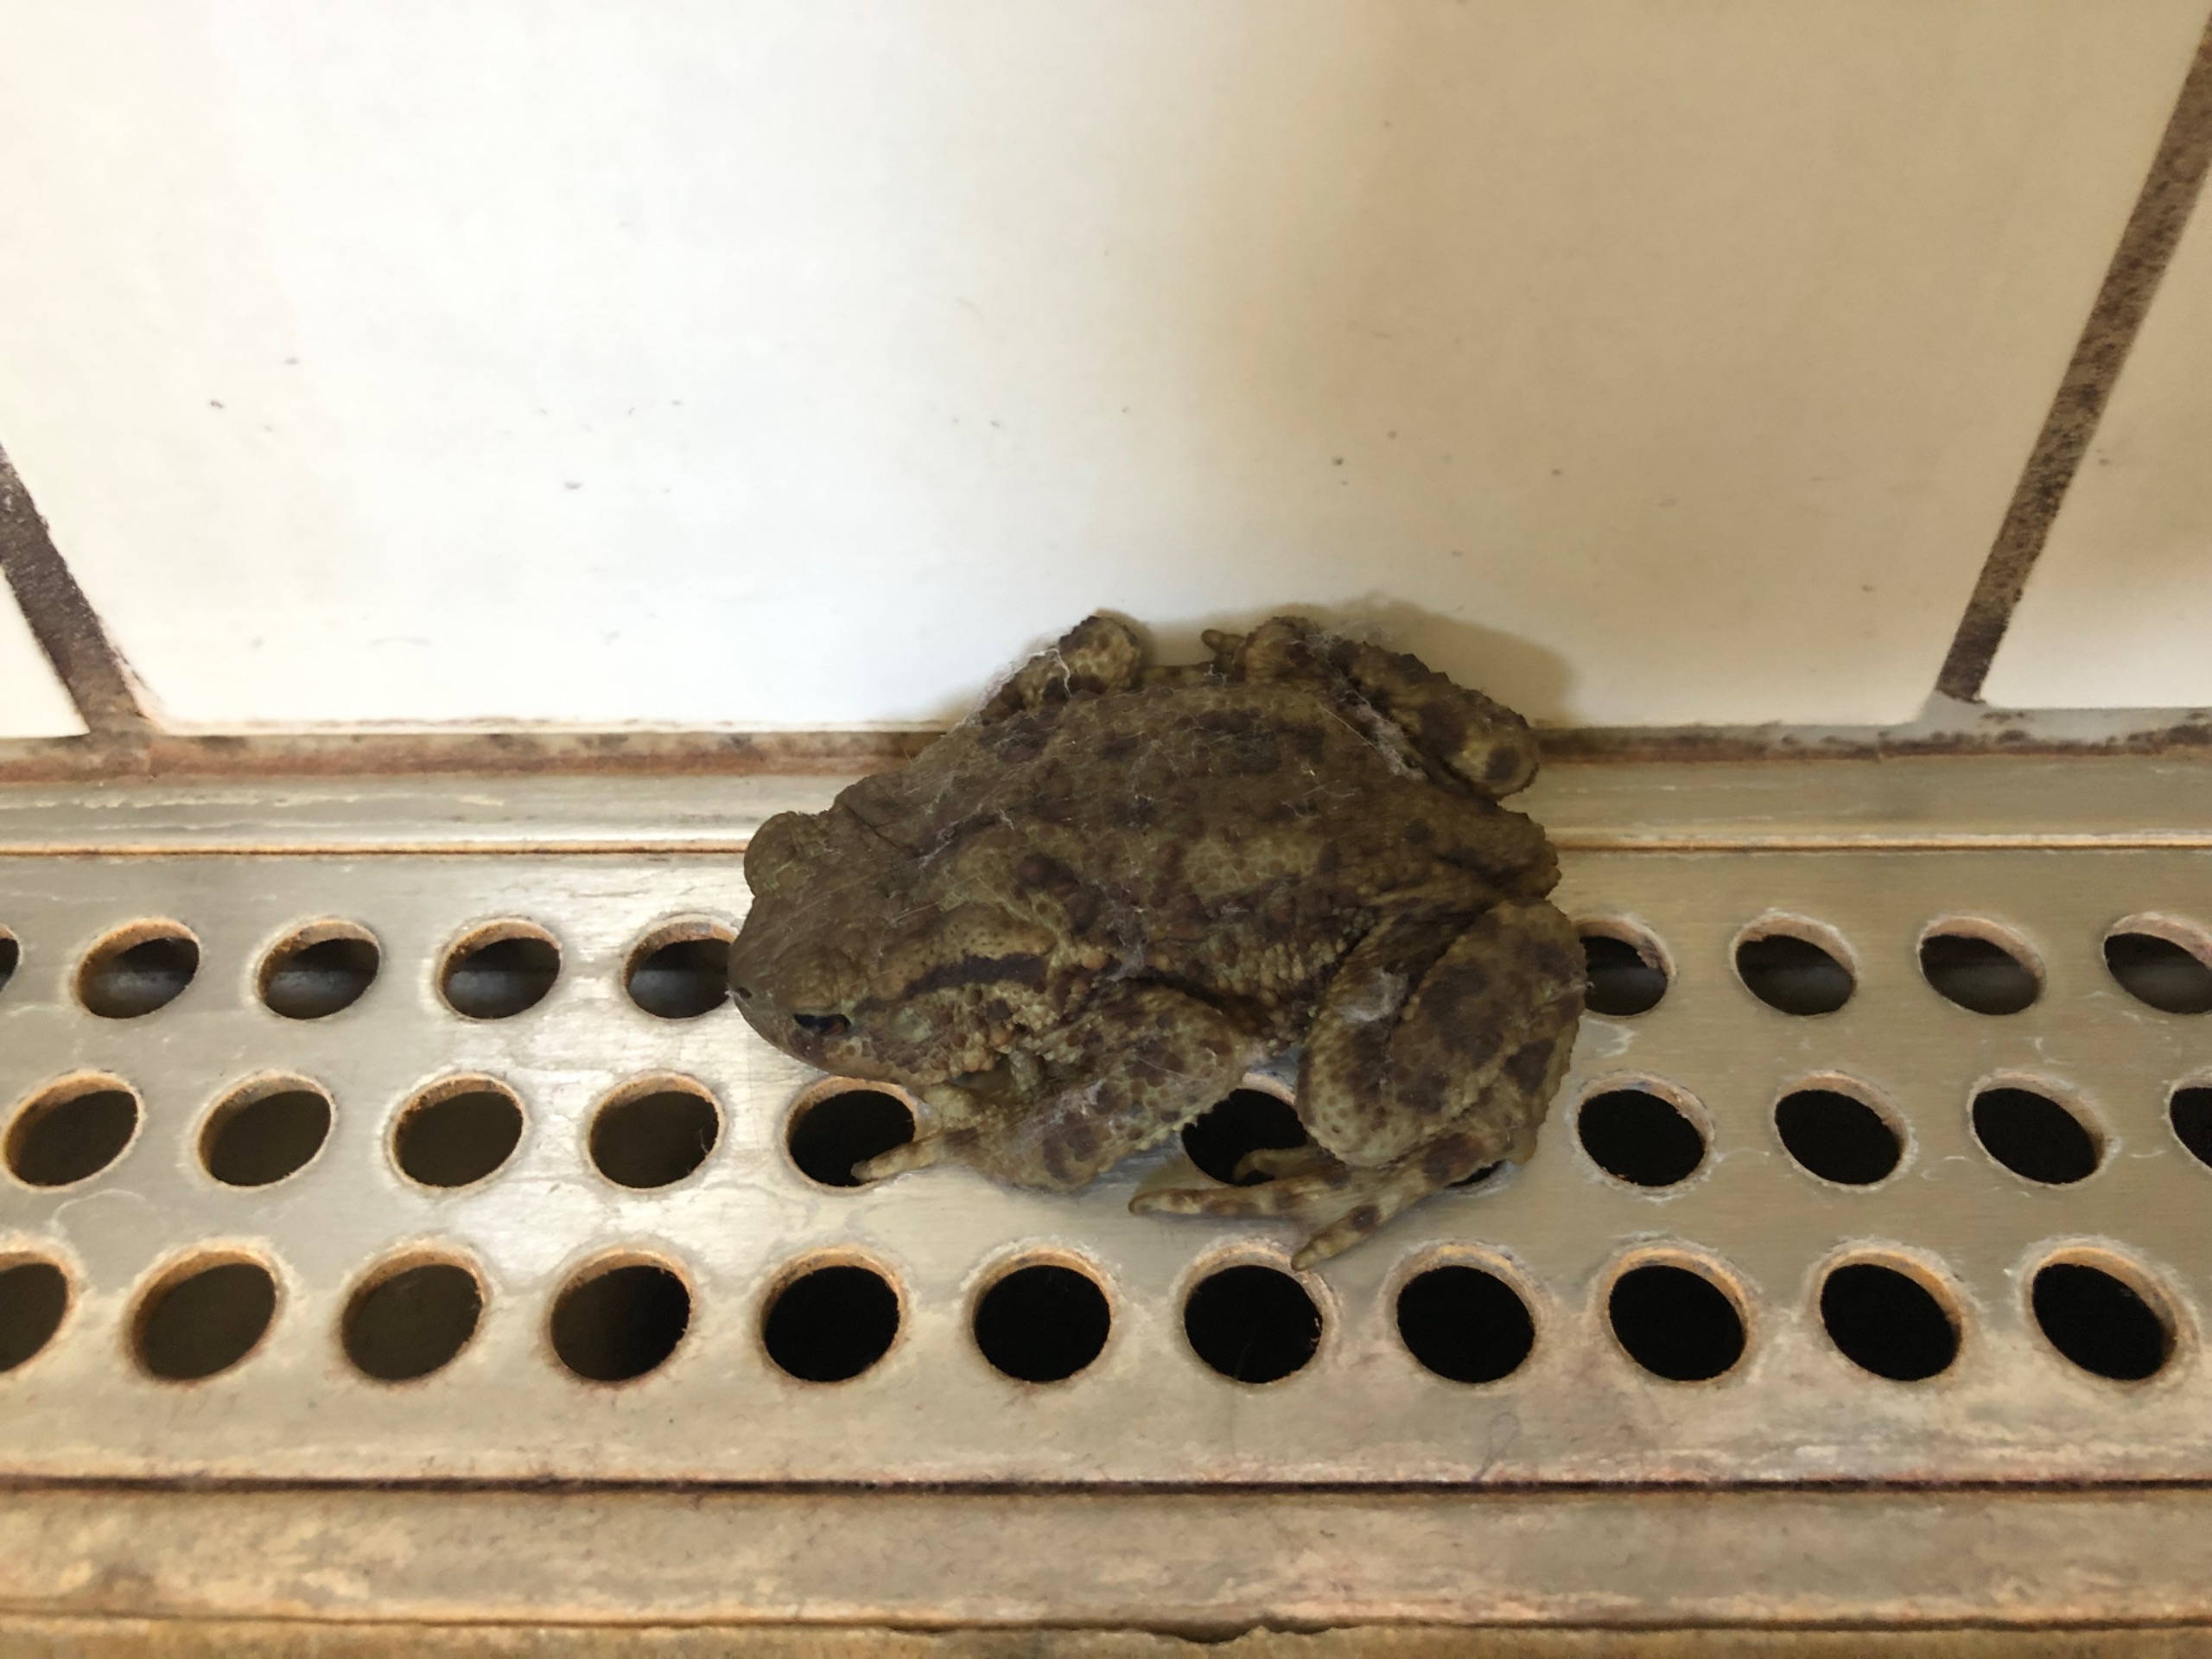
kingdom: Animalia
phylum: Chordata
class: Amphibia
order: Anura
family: Bufonidae
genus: Bufo
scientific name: Bufo bufo
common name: Skrubtudse
